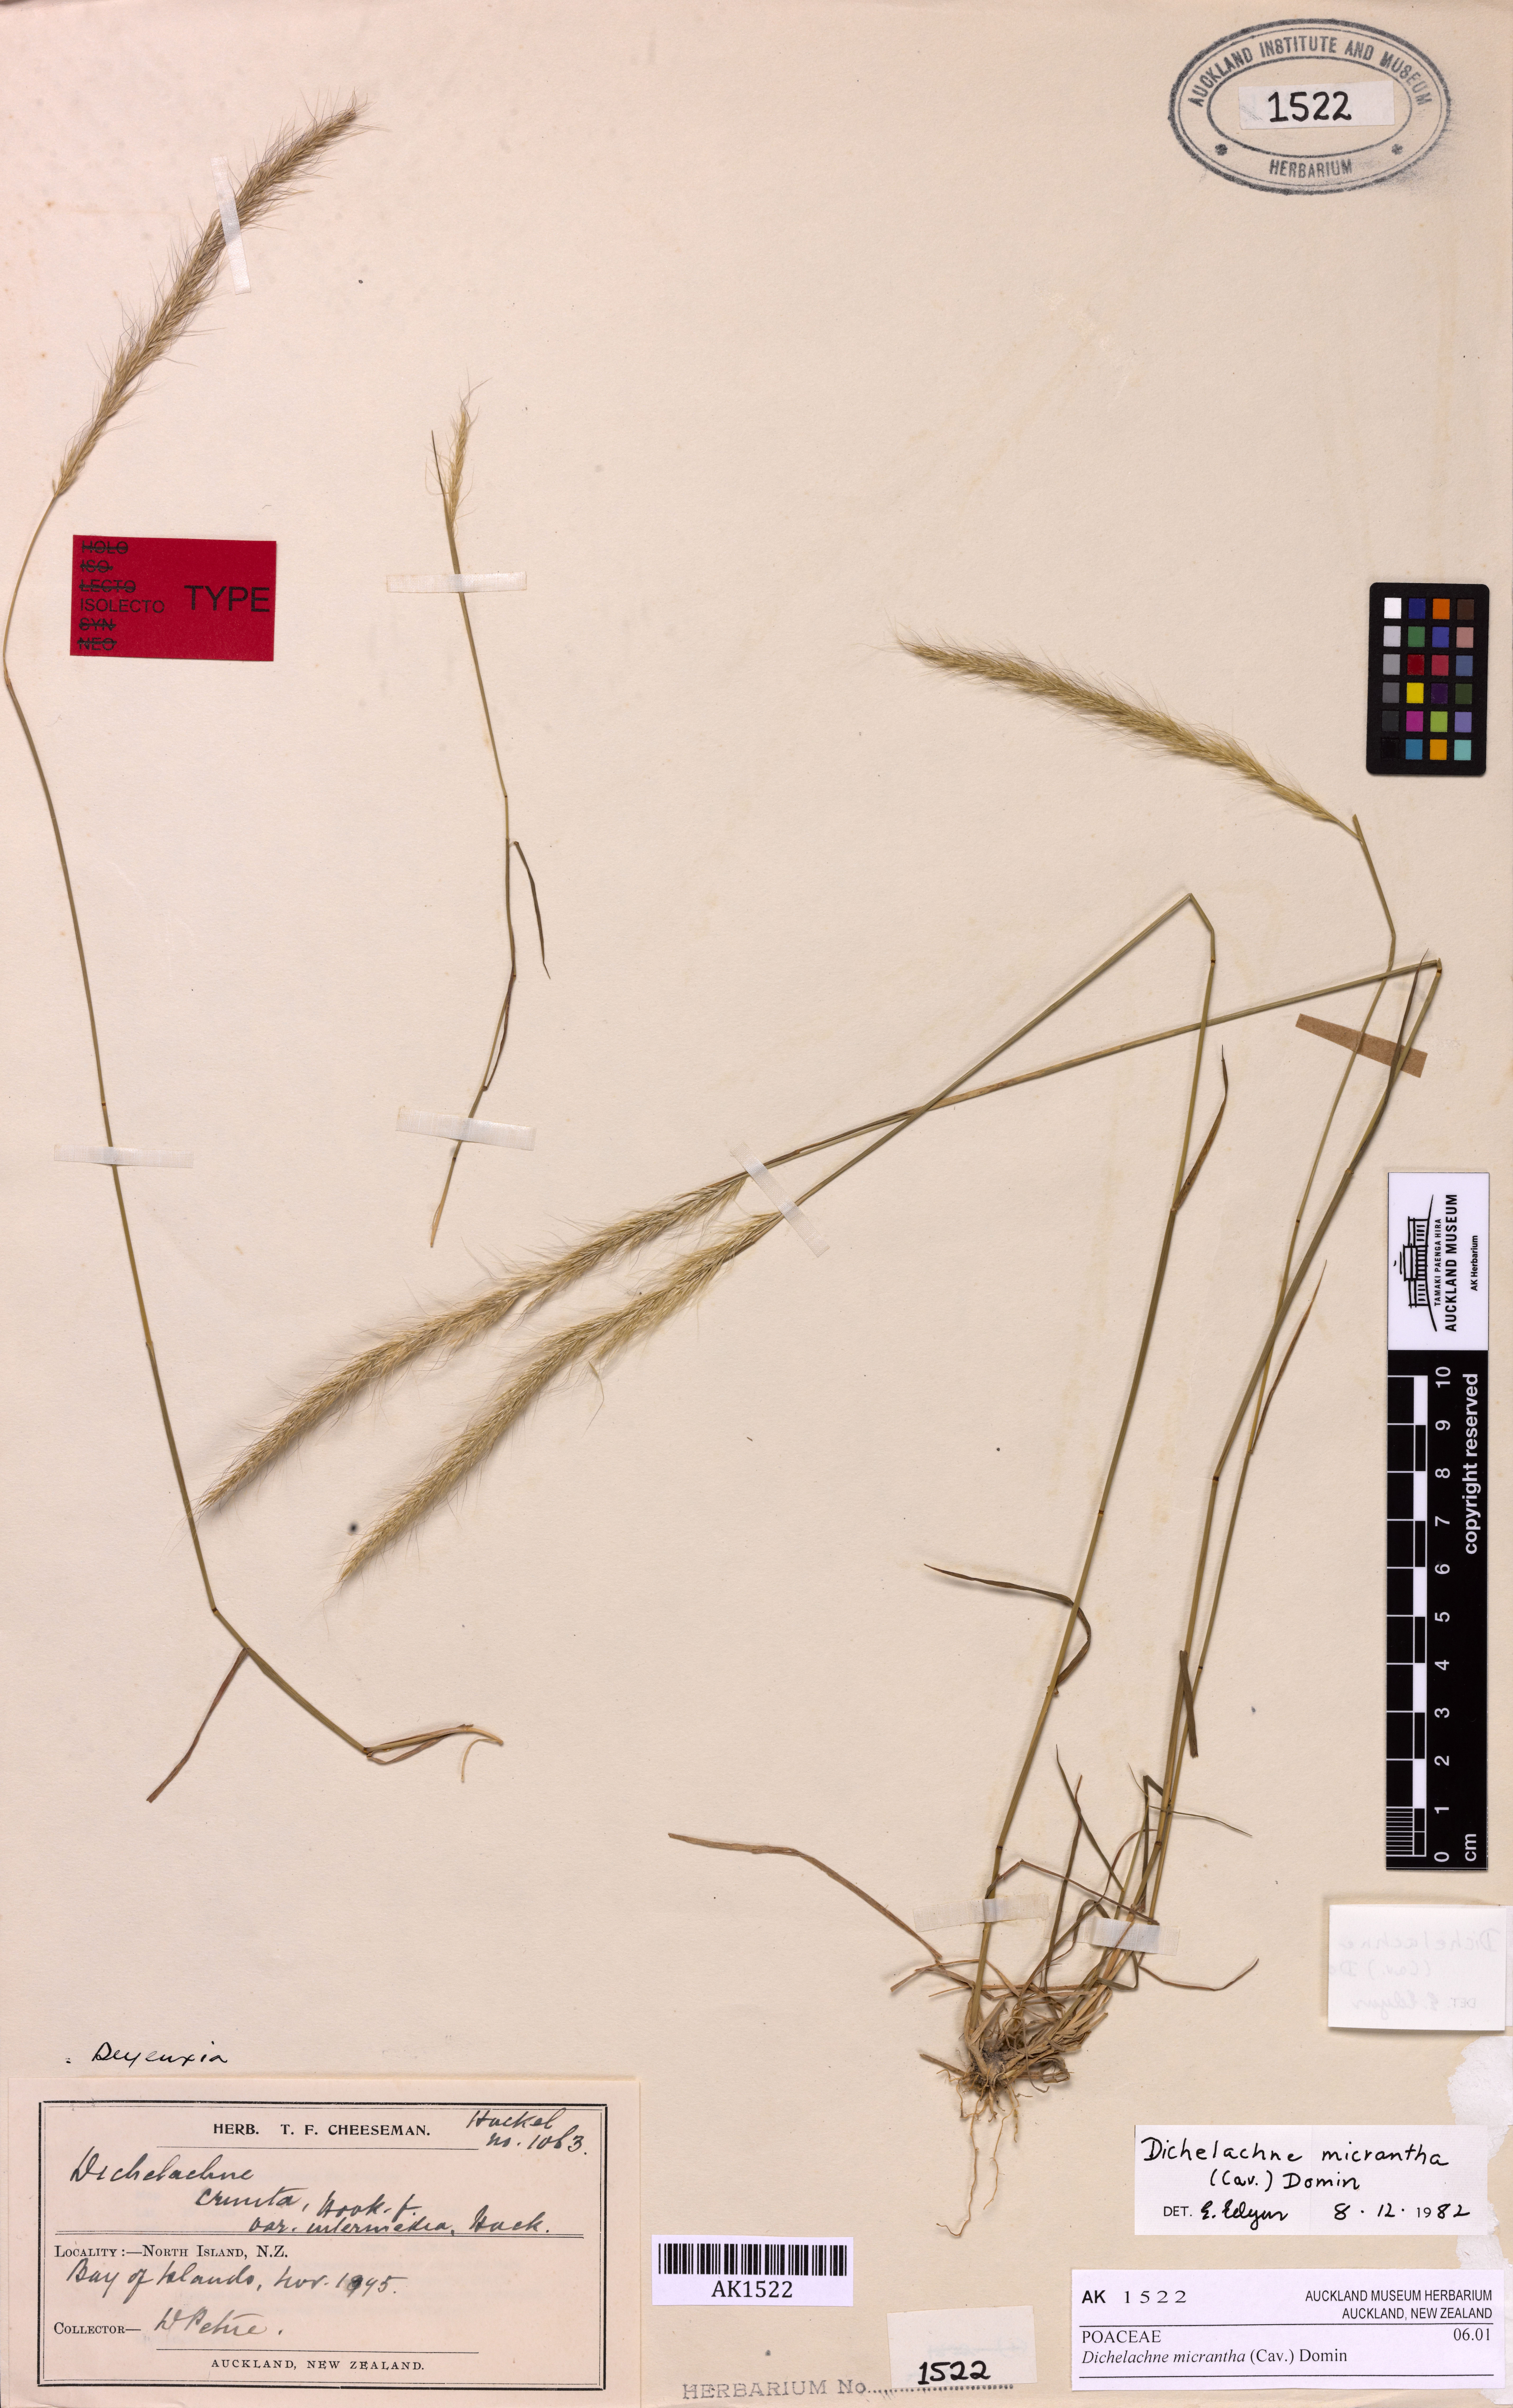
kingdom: Plantae
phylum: Tracheophyta
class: Liliopsida
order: Alismatales
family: Potamogetonaceae
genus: Zannichellia
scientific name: Zannichellia palustris
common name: Horned pondweed
